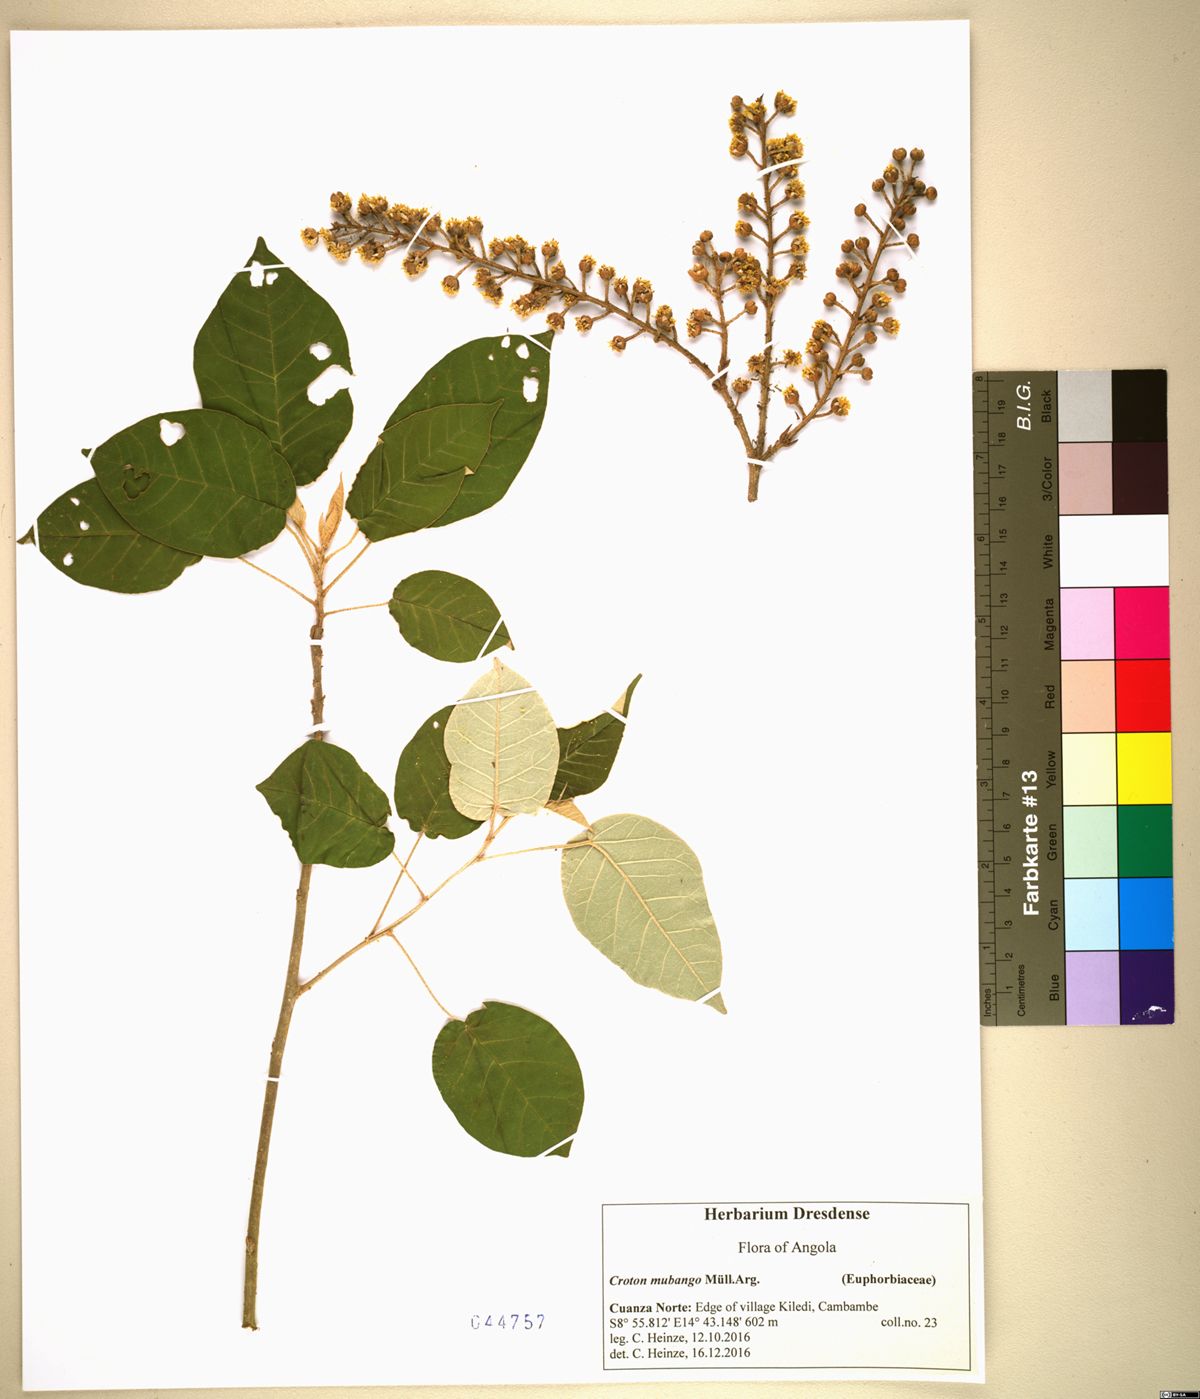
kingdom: Plantae
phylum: Tracheophyta
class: Magnoliopsida
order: Malpighiales
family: Euphorbiaceae
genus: Croton
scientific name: Croton mubango
